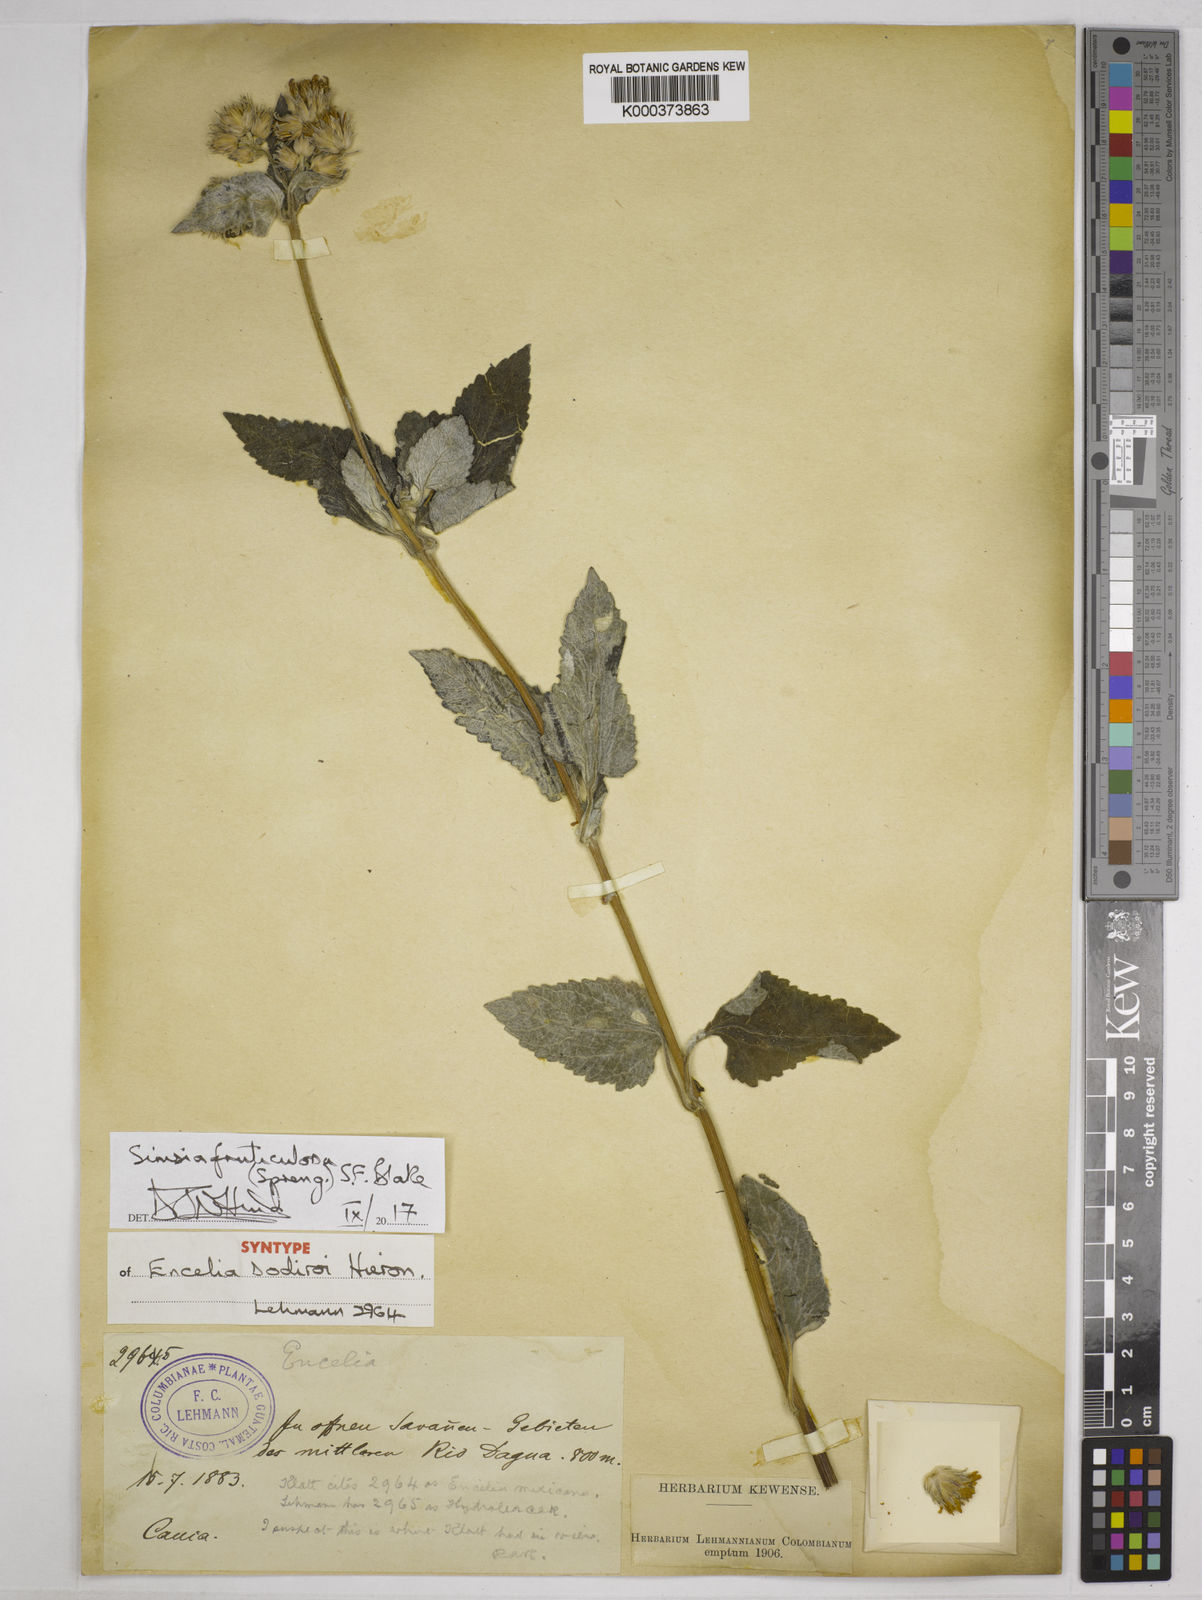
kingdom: Plantae
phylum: Tracheophyta
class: Magnoliopsida
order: Asterales
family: Asteraceae
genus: Simsia
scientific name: Simsia fruticulosa
